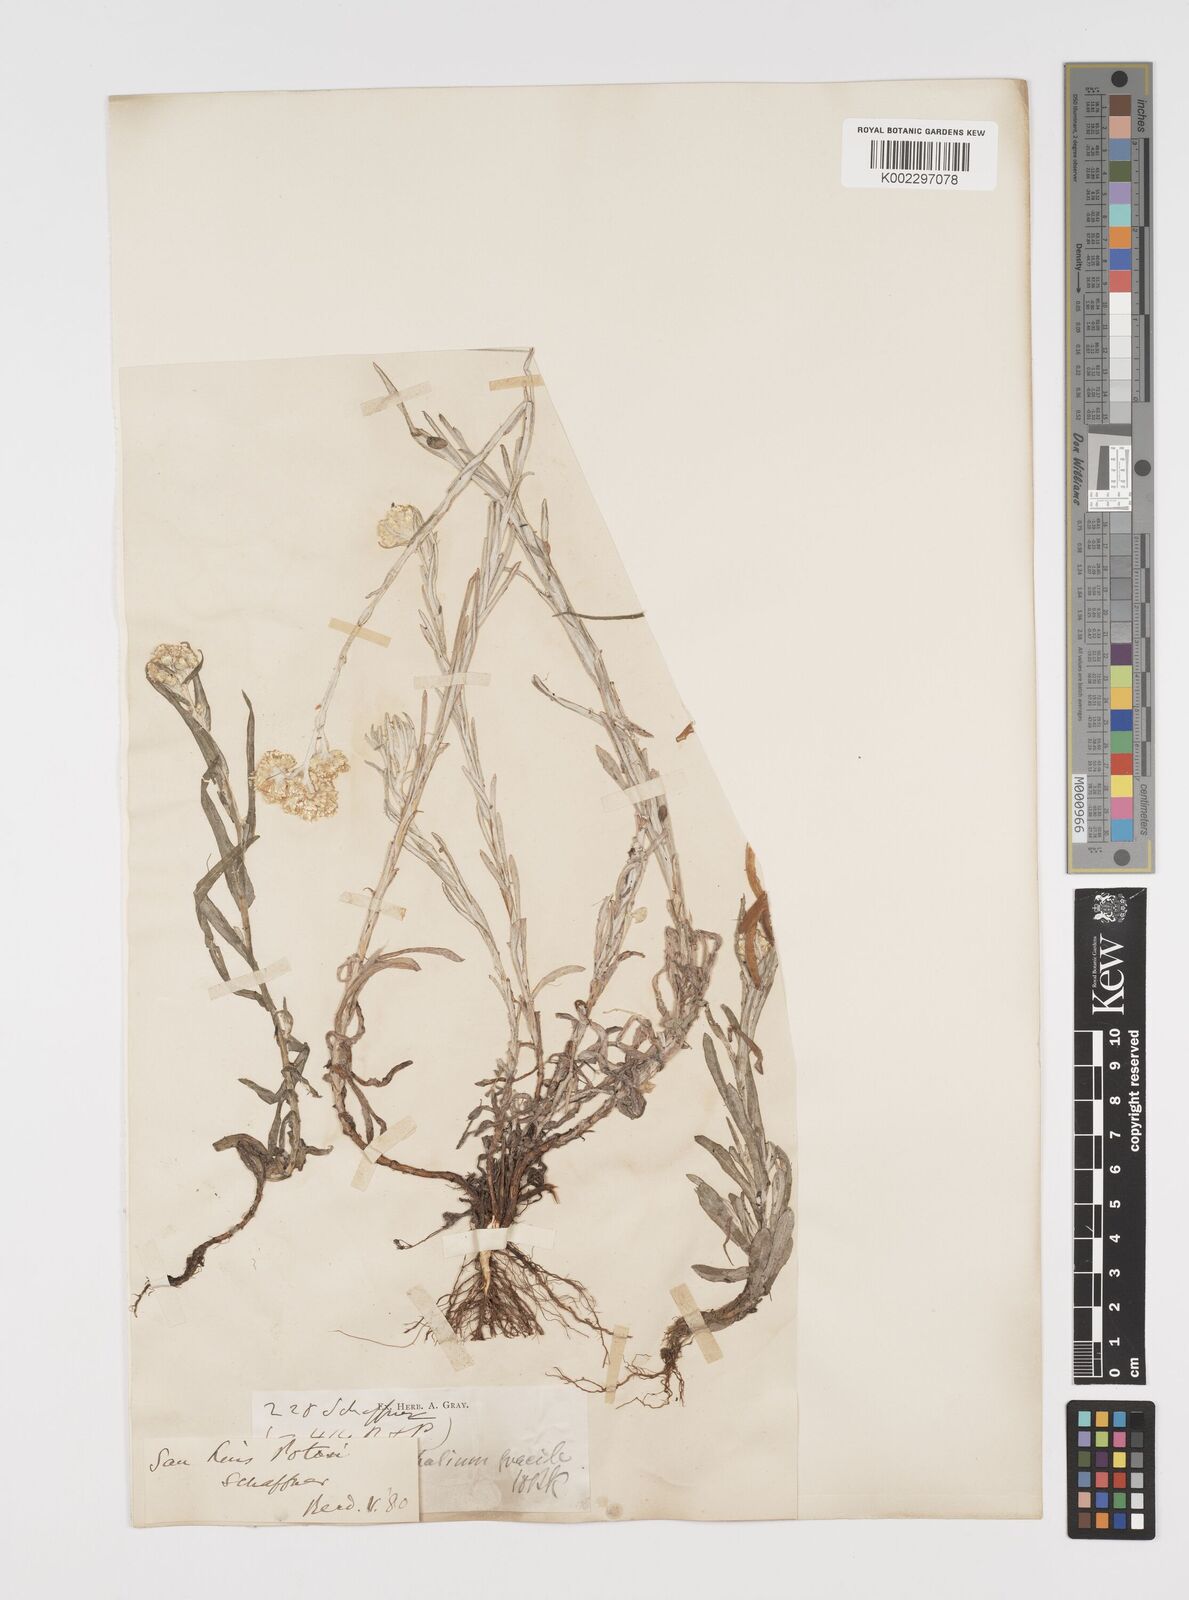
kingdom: Plantae
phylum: Tracheophyta
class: Magnoliopsida
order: Asterales
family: Asteraceae
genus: Pseudognaphalium
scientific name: Pseudognaphalium
